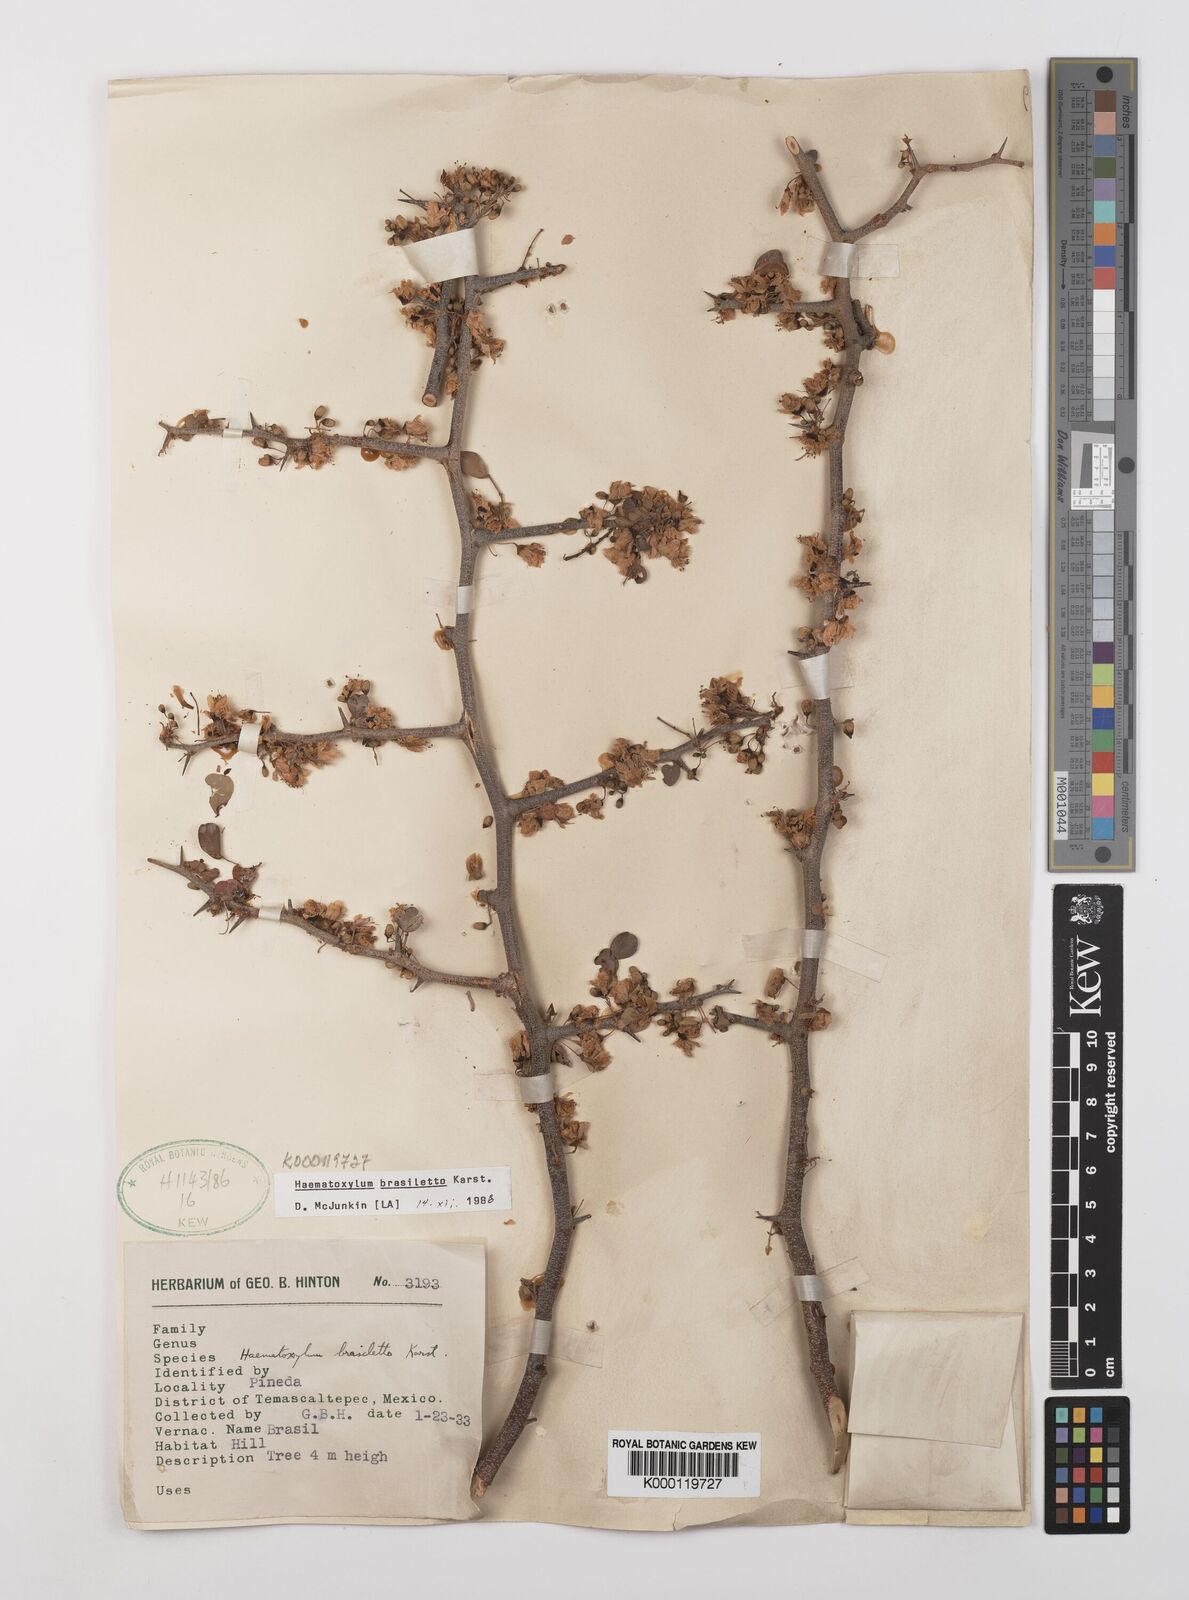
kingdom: Plantae
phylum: Tracheophyta
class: Magnoliopsida
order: Fabales
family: Fabaceae
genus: Haematoxylum
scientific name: Haematoxylum brasiletto
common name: Peachwood
